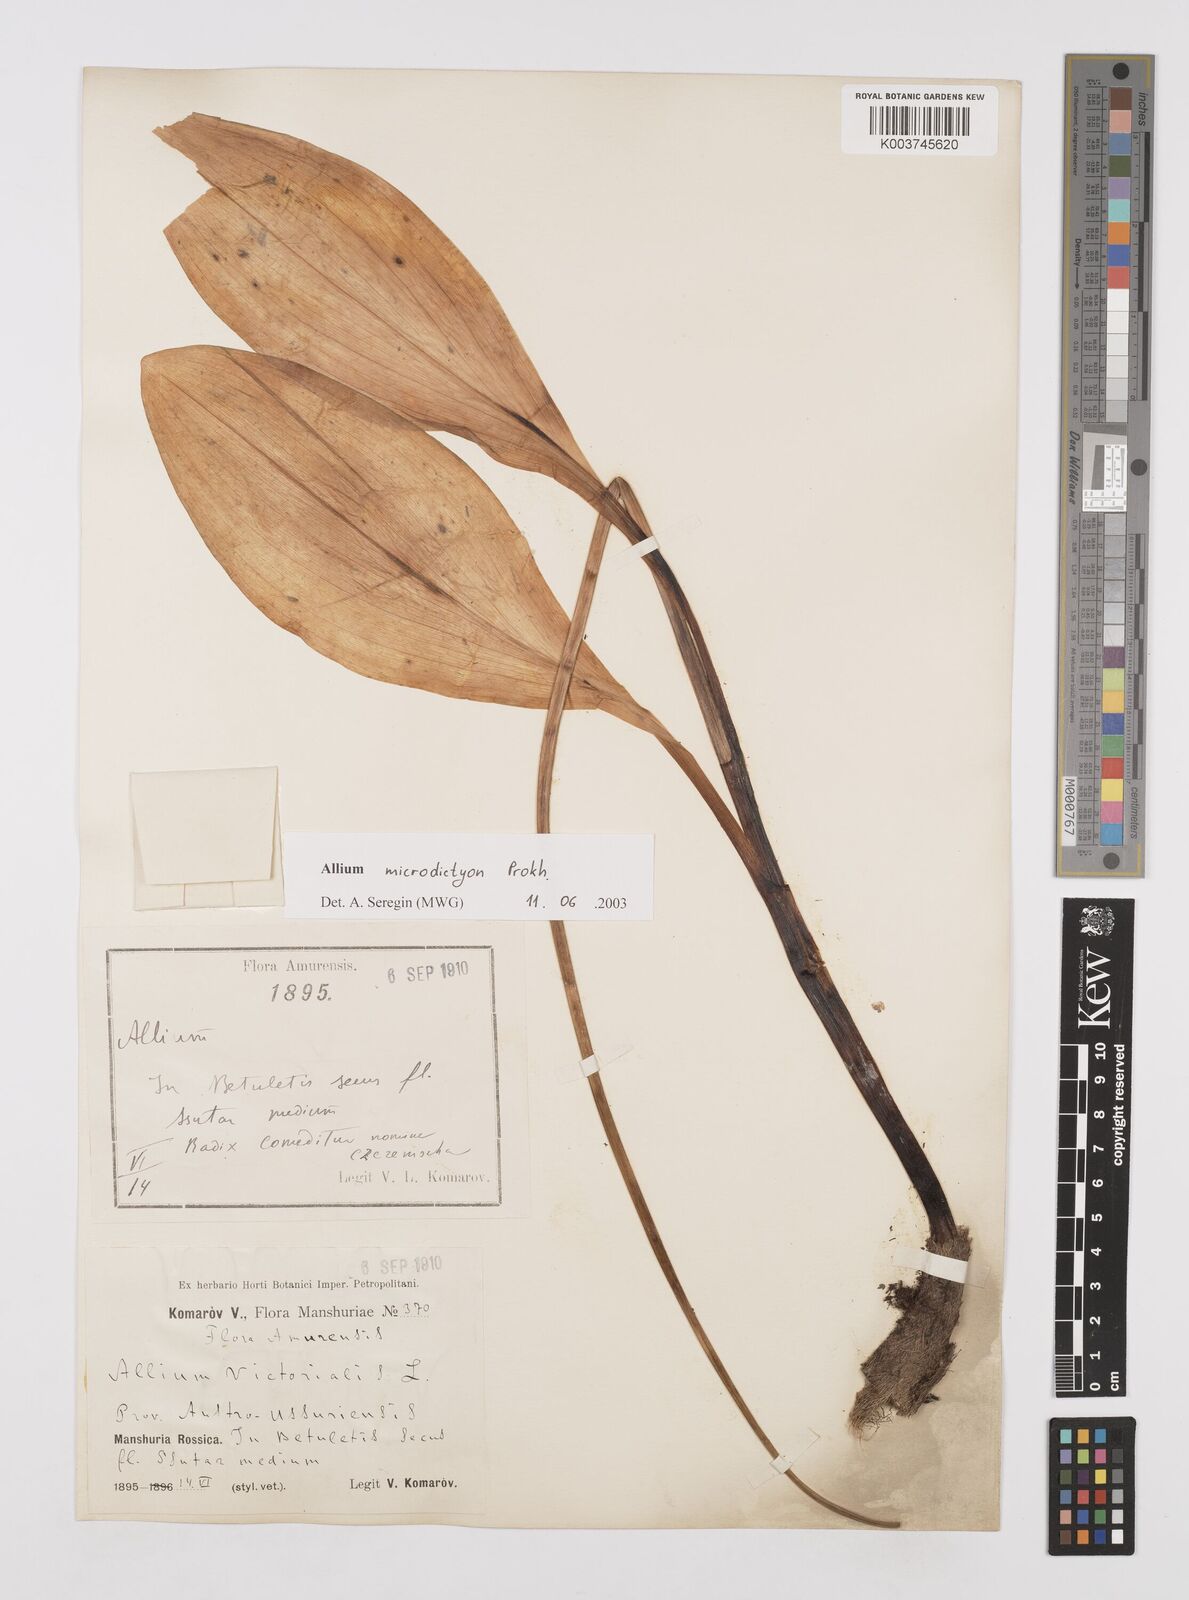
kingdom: Plantae
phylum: Tracheophyta
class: Liliopsida
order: Asparagales
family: Amaryllidaceae
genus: Allium
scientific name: Allium victorialis
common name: Alpine leek
